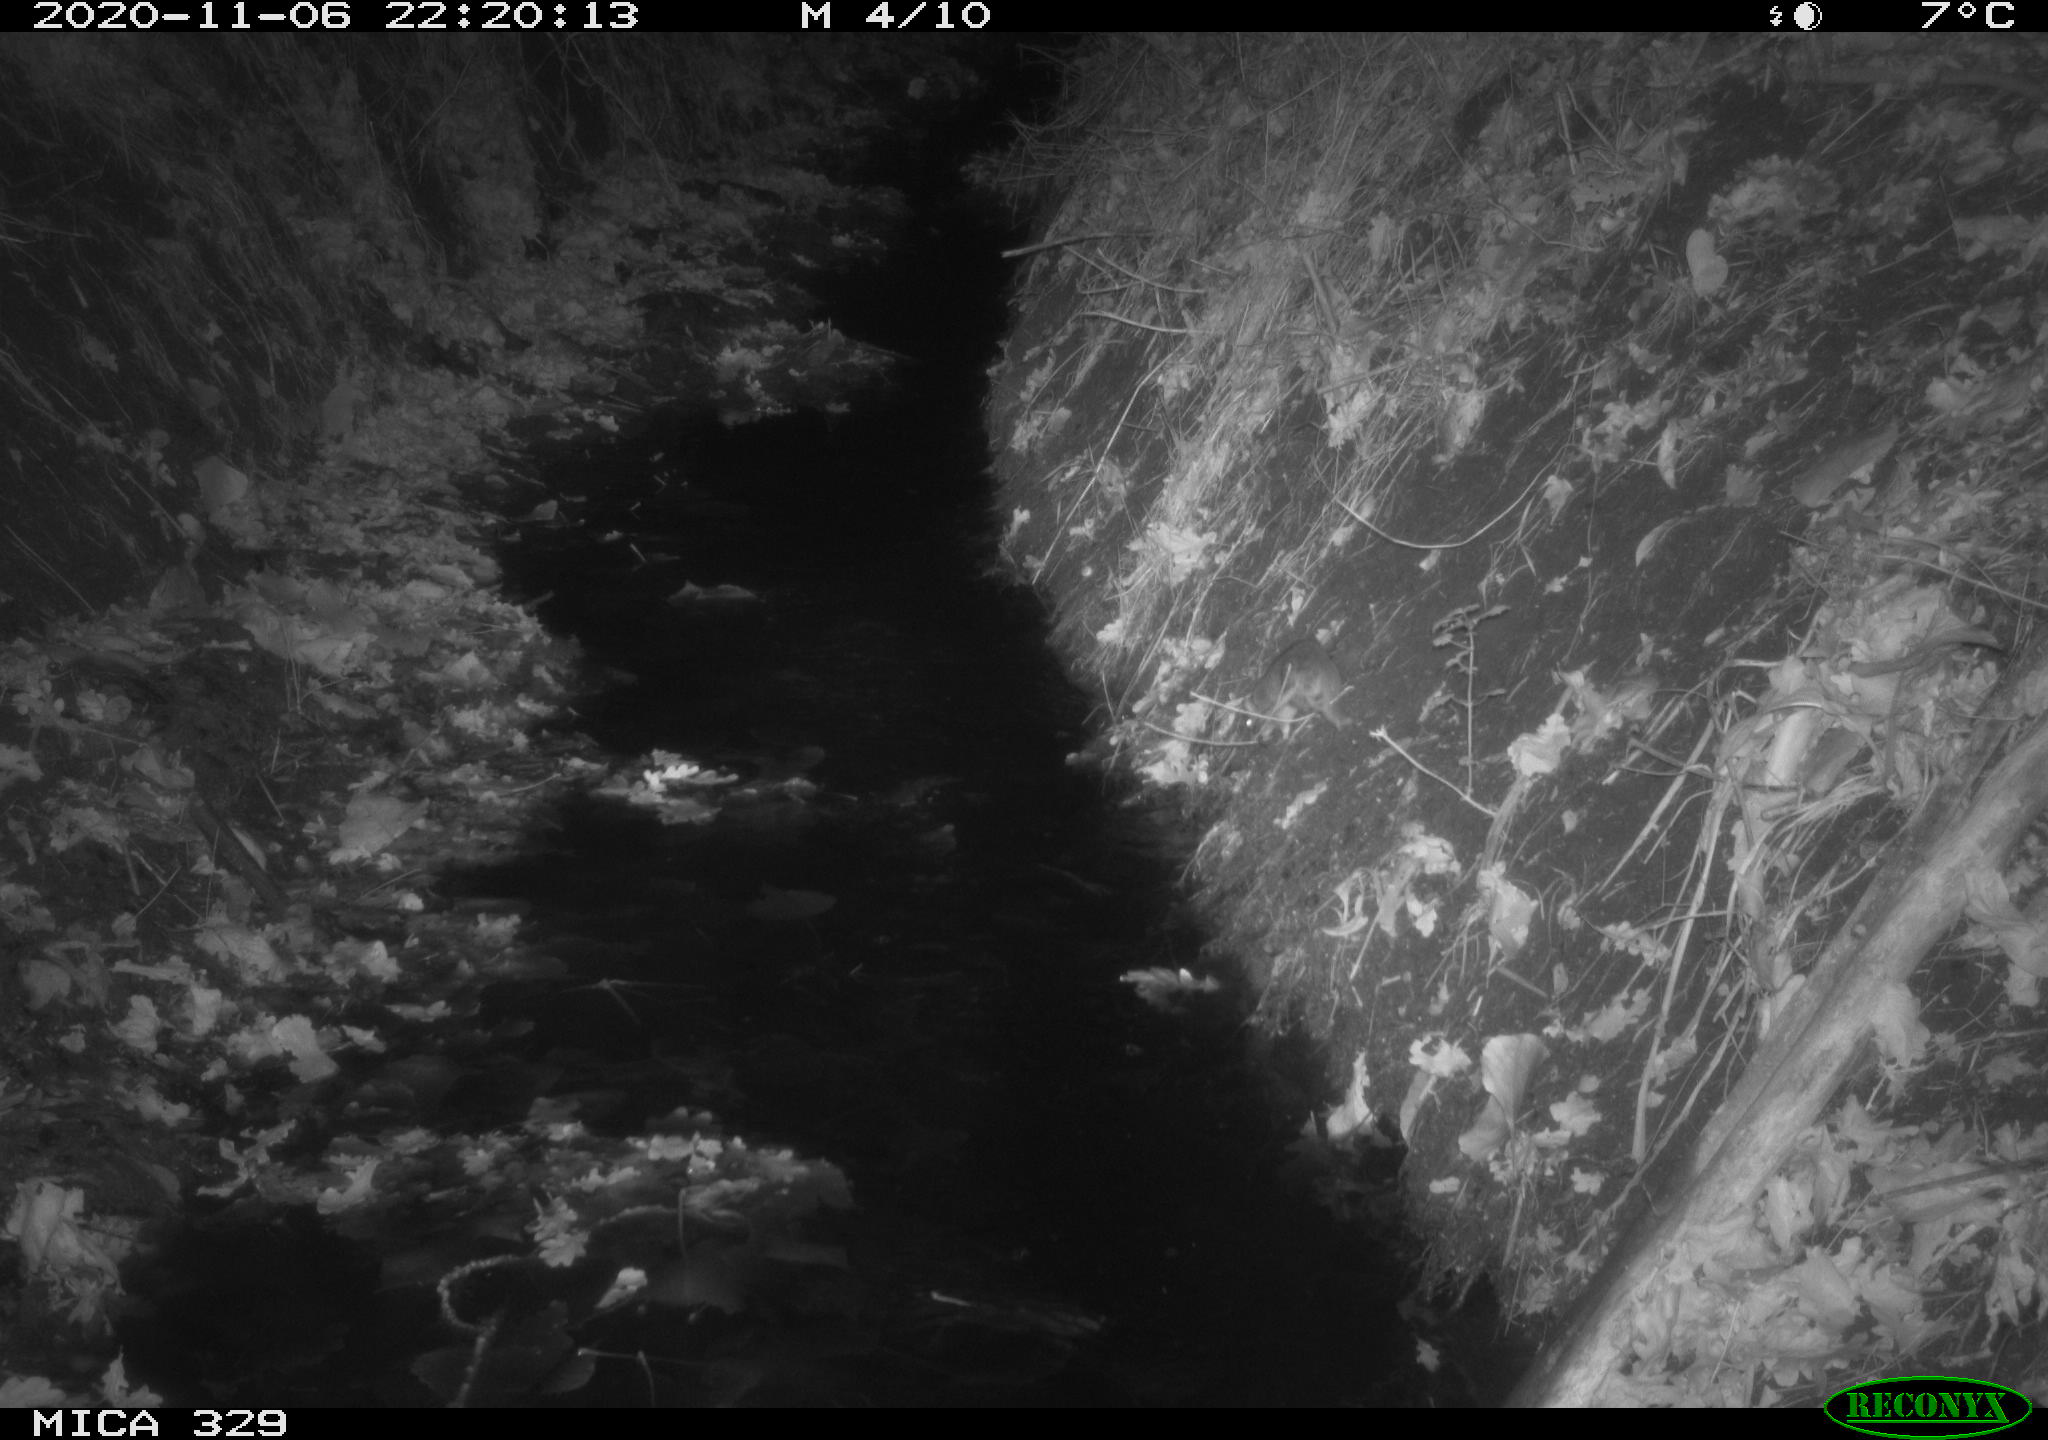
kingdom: Animalia
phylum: Chordata
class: Mammalia
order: Rodentia
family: Muridae
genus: Rattus
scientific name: Rattus norvegicus
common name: Brown rat
